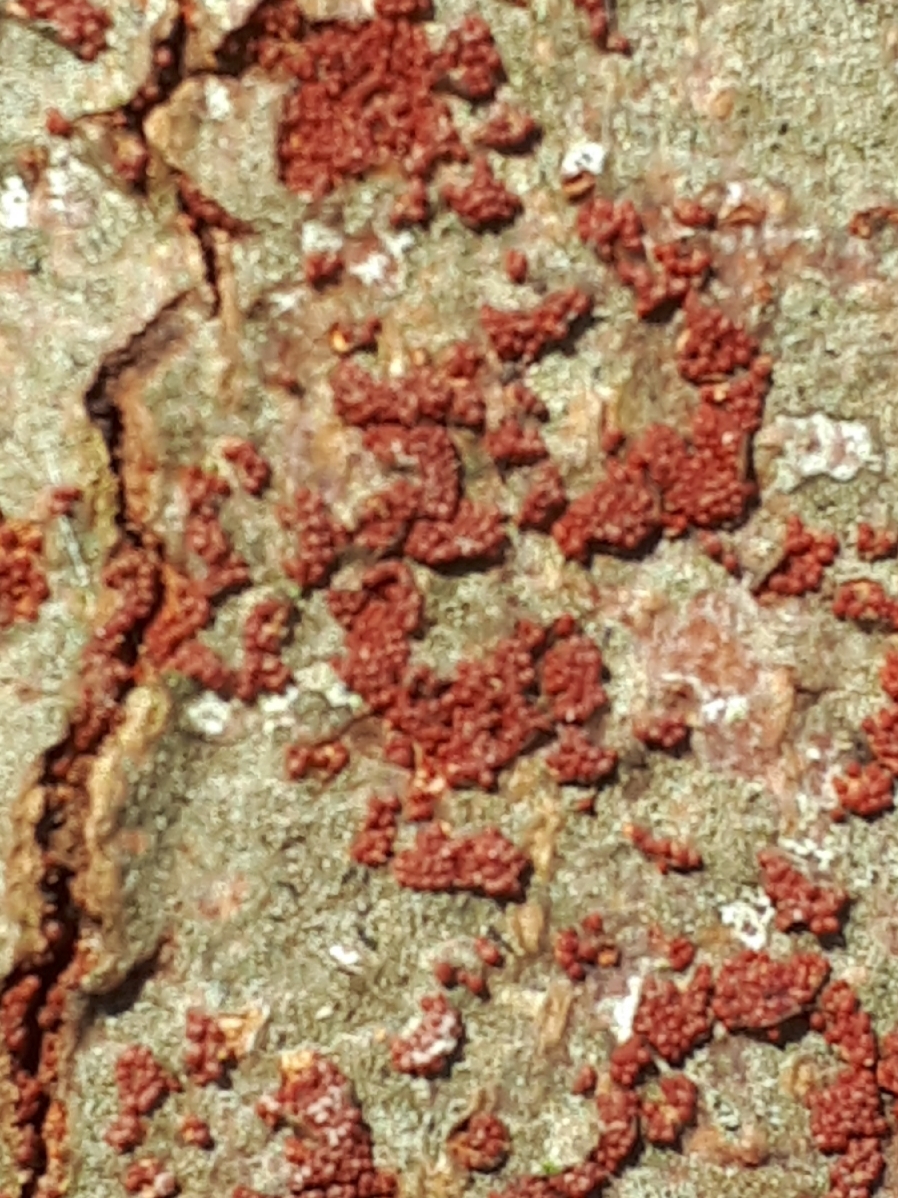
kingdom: Fungi
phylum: Ascomycota
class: Sordariomycetes
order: Hypocreales
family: Nectriaceae
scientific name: Nectriaceae
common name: cinnobersvampfamilien
